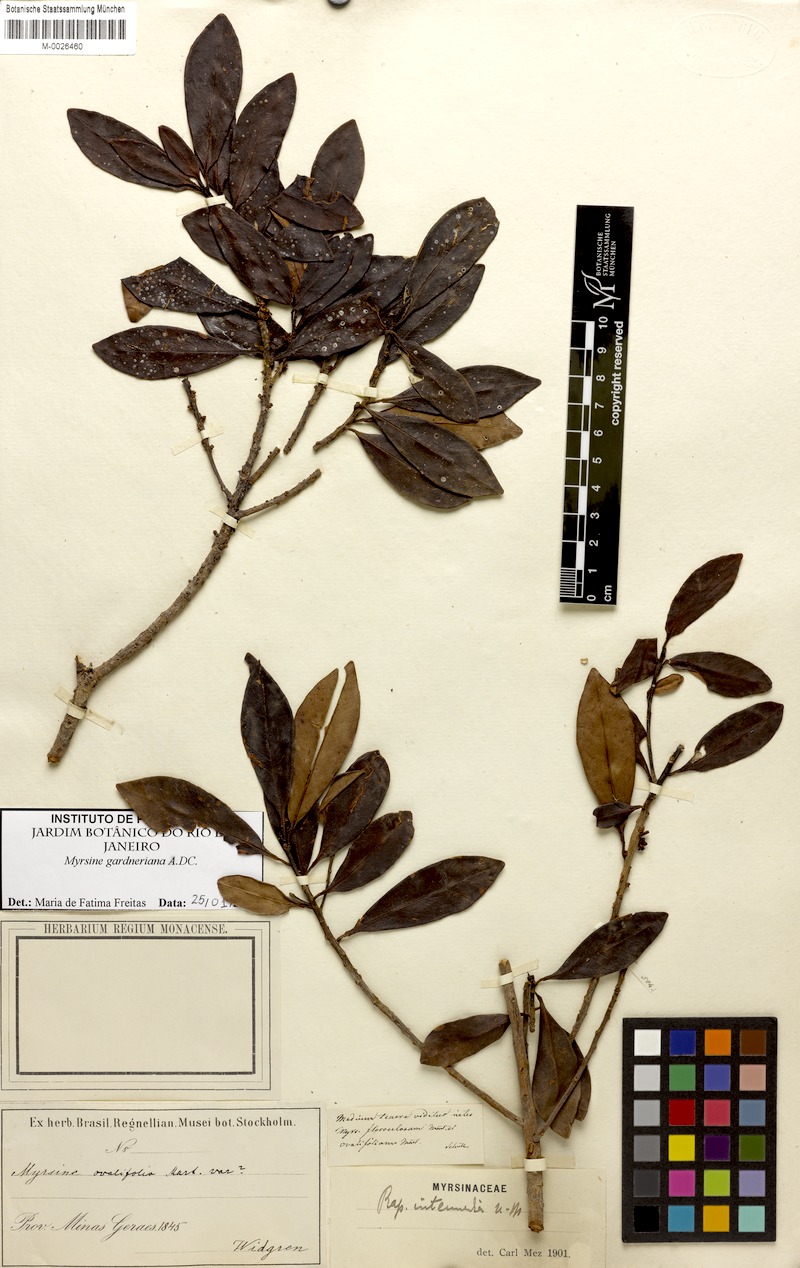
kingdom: Plantae
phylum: Tracheophyta
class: Magnoliopsida
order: Ericales
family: Primulaceae
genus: Myrsine
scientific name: Myrsine gardneriana
